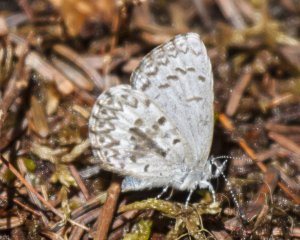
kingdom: Animalia
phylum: Arthropoda
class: Insecta
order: Lepidoptera
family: Lycaenidae
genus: Celastrina
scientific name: Celastrina lucia
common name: Northern Spring Azure
